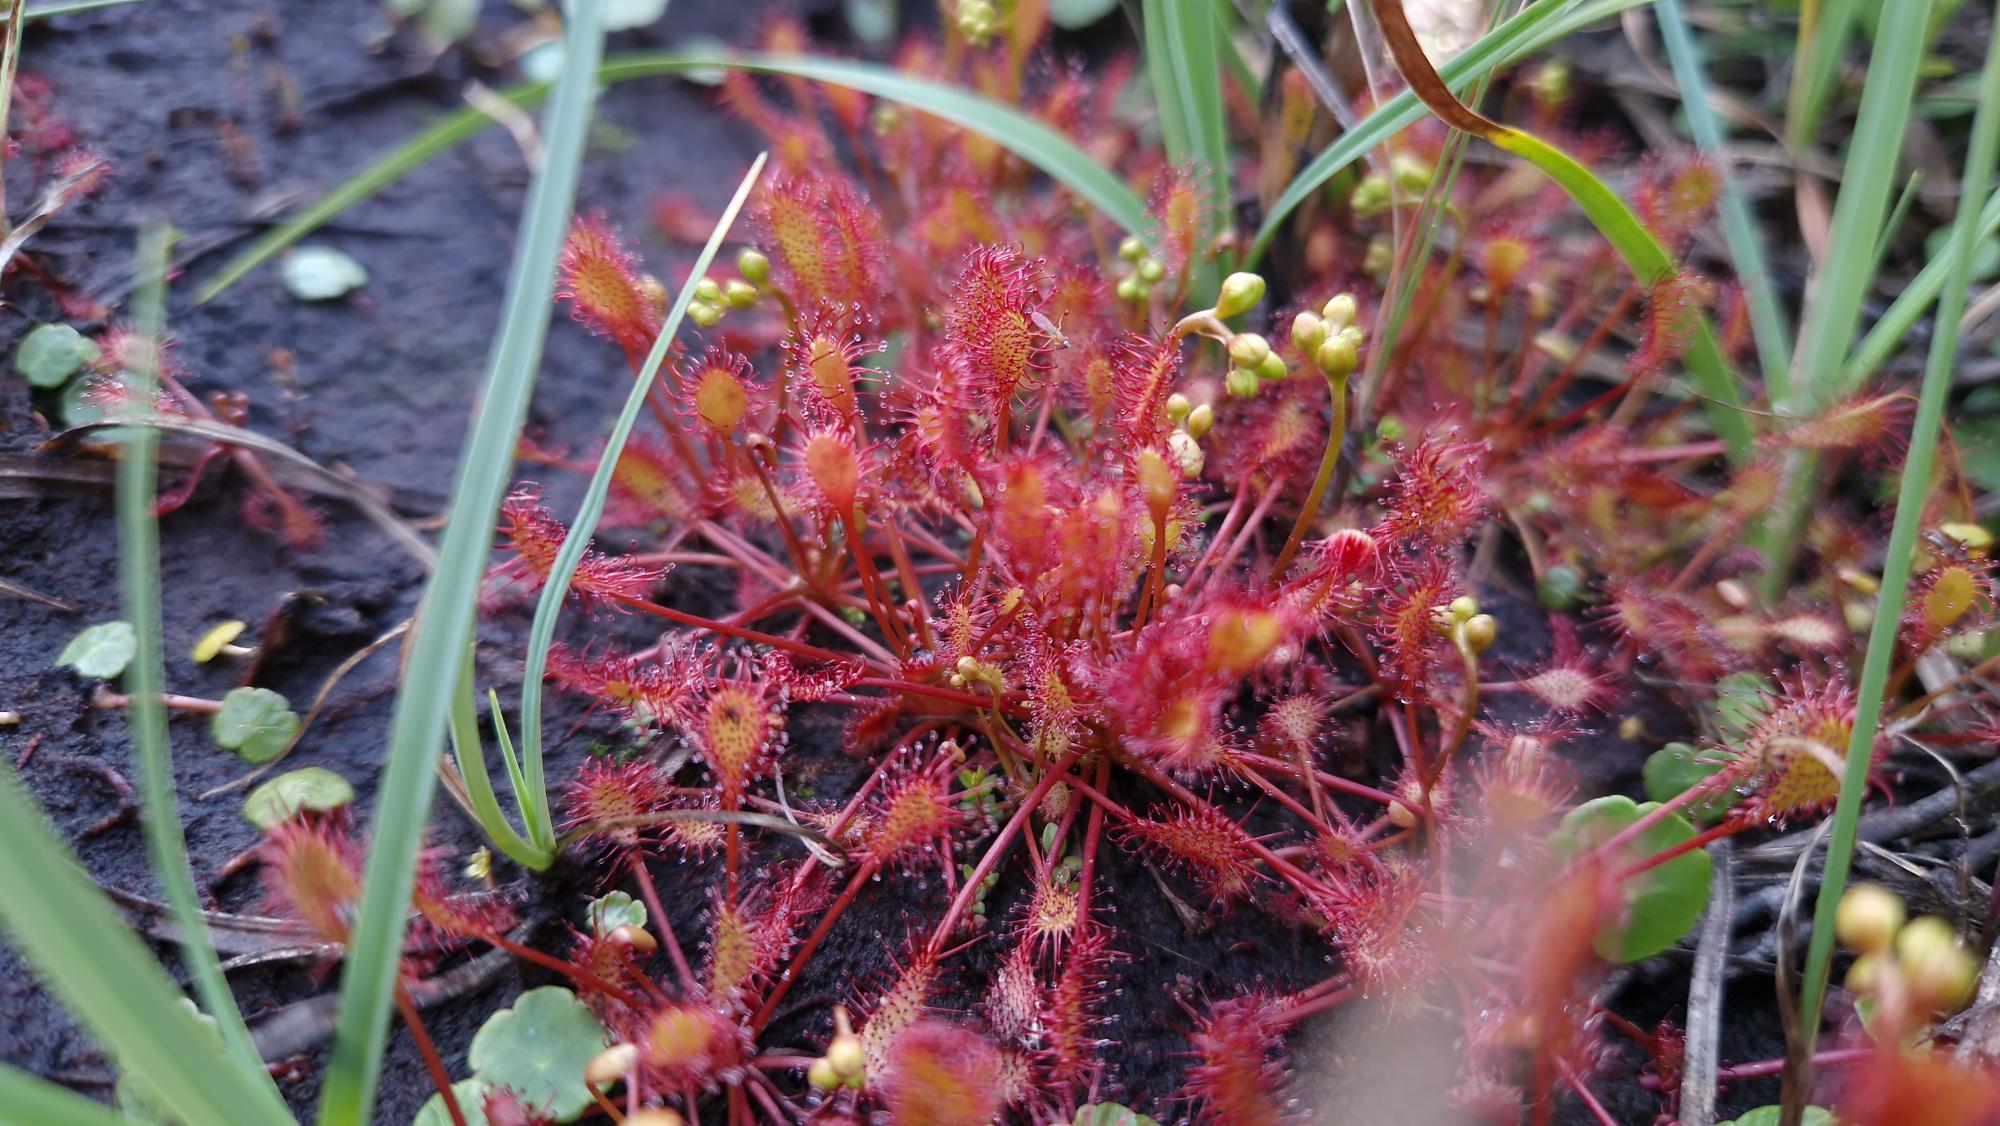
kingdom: Plantae
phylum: Tracheophyta
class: Magnoliopsida
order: Caryophyllales
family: Droseraceae
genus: Drosera
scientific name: Drosera intermedia
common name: Liden soldug
